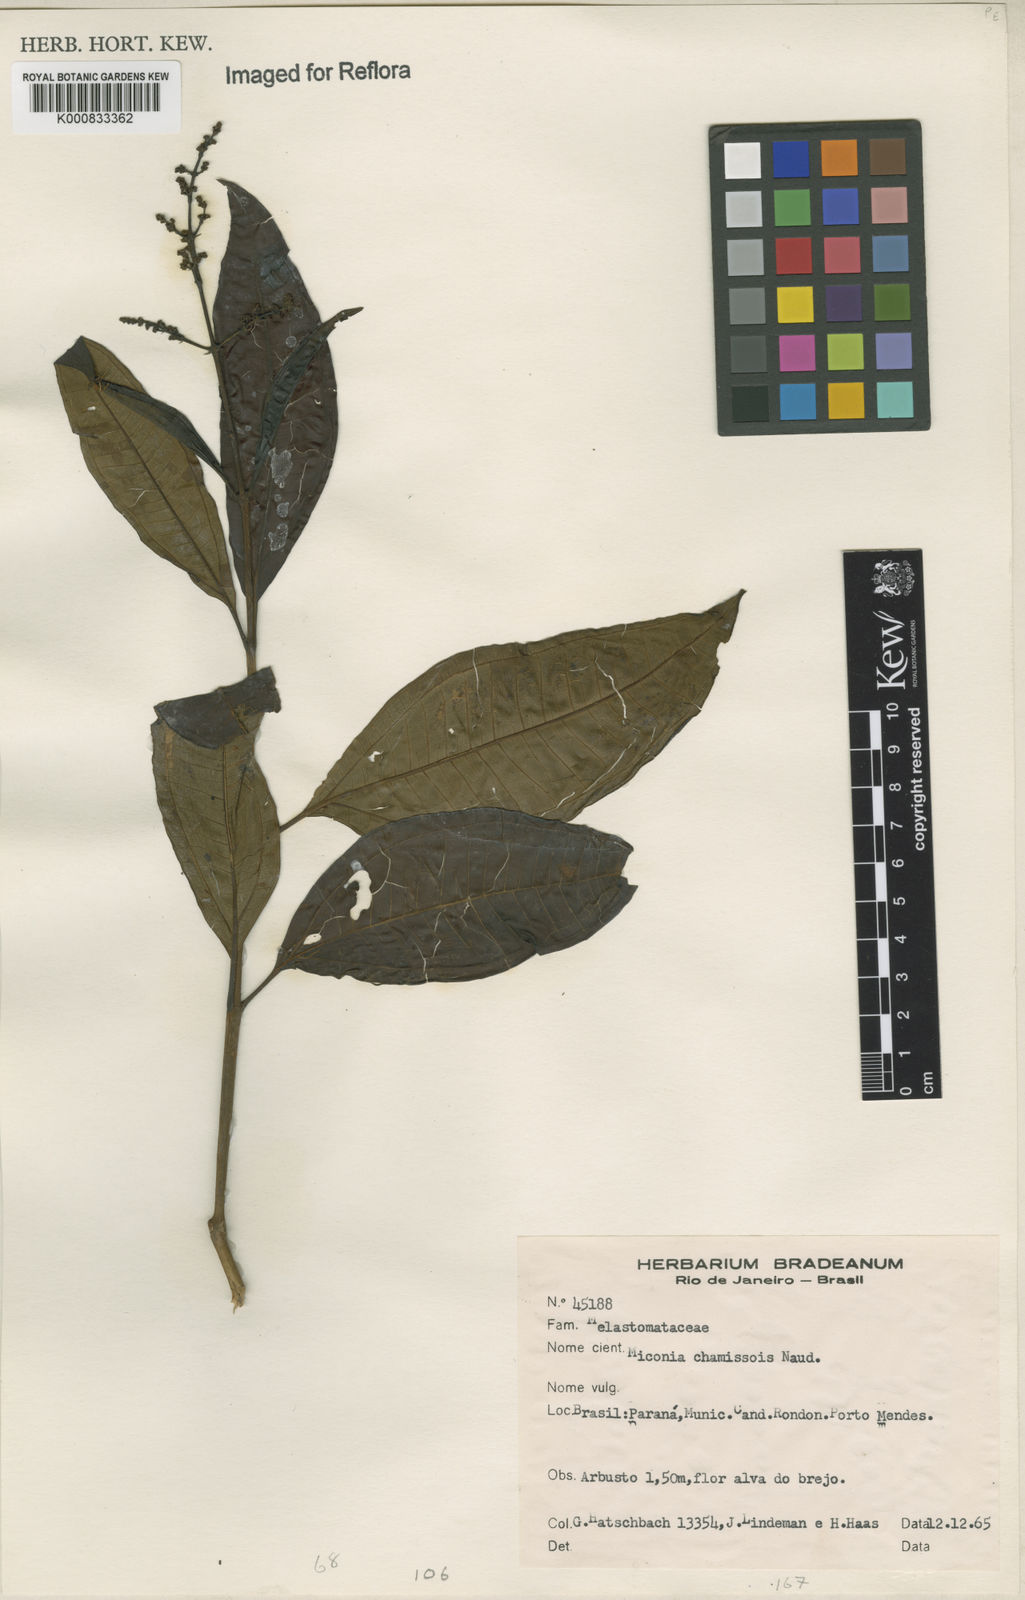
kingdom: Plantae
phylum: Tracheophyta
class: Magnoliopsida
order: Myrtales
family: Melastomataceae
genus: Miconia
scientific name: Miconia chamissois
